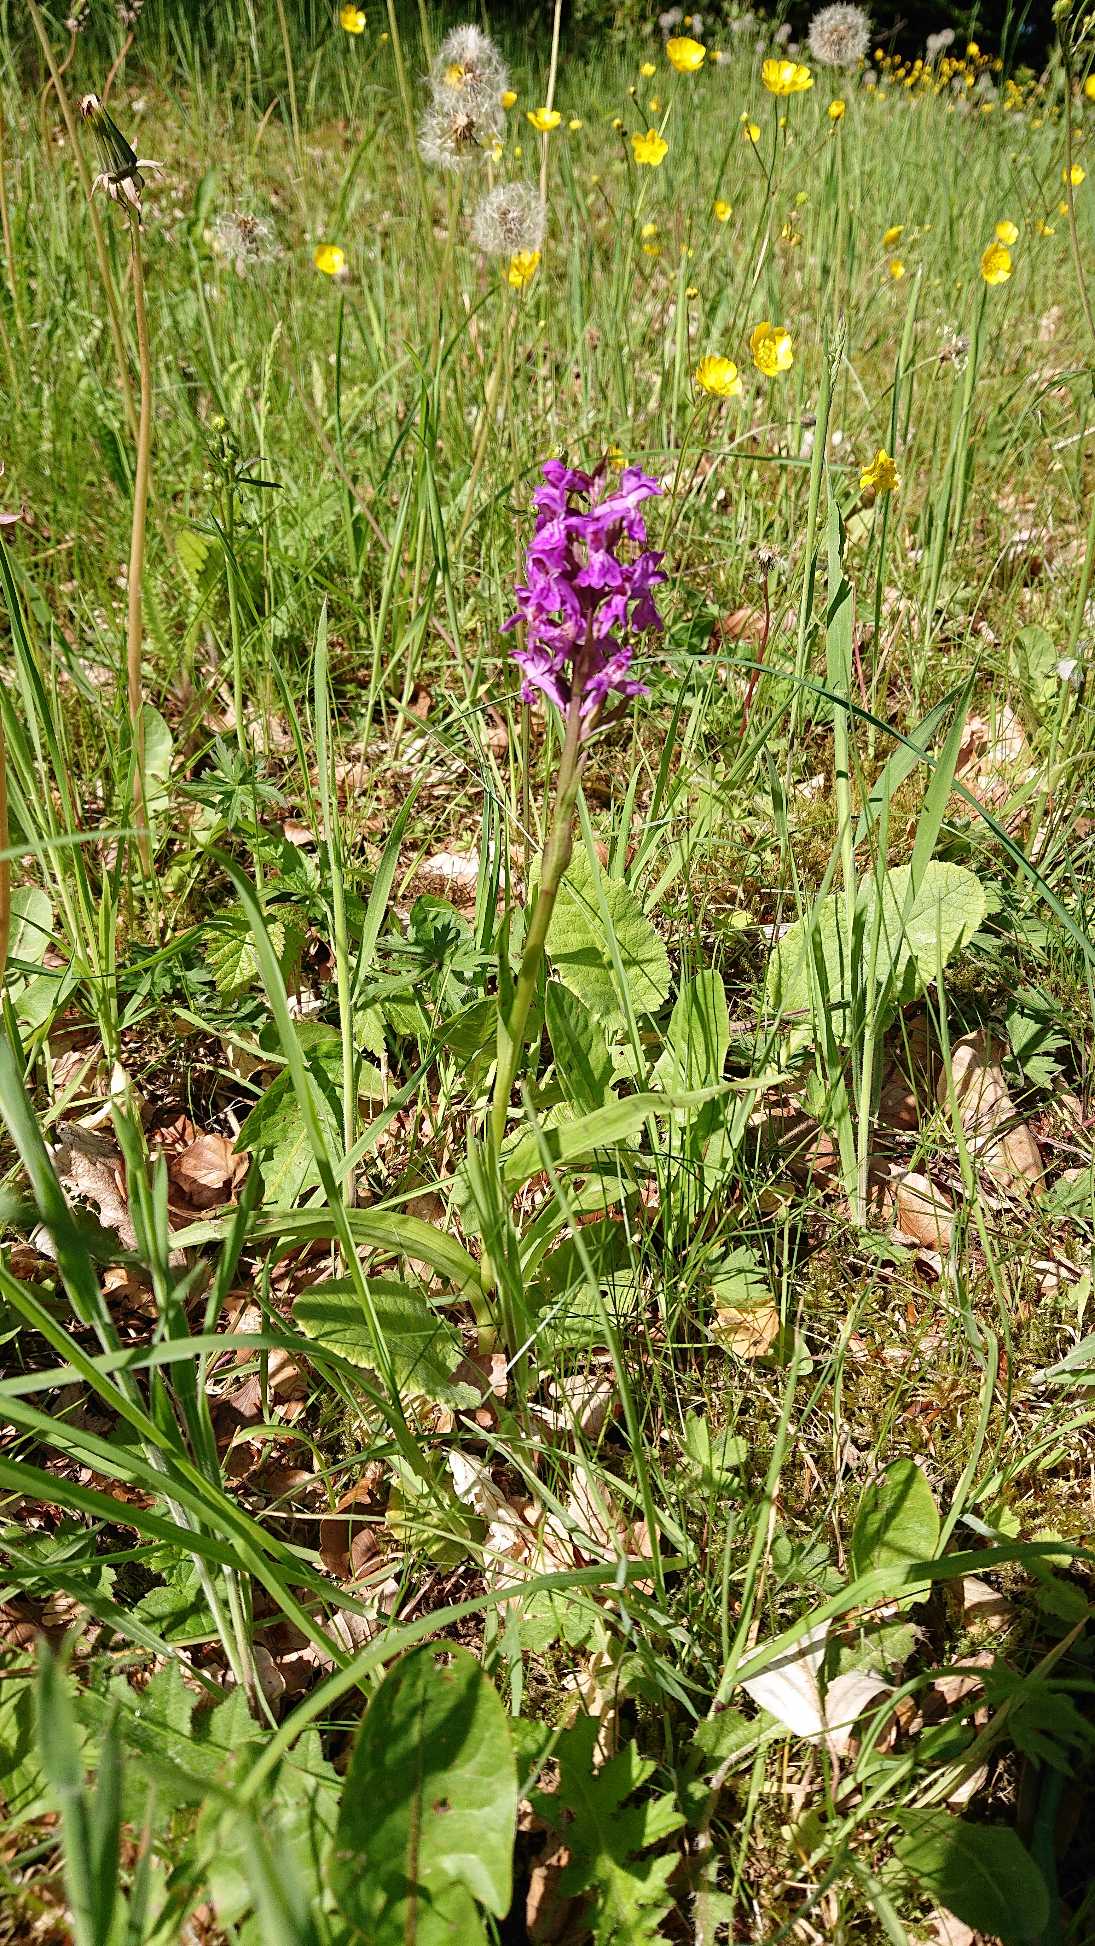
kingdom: Plantae
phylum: Tracheophyta
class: Liliopsida
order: Asparagales
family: Orchidaceae
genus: Dactylorhiza
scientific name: Dactylorhiza majalis
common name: Maj-gøgeurt
